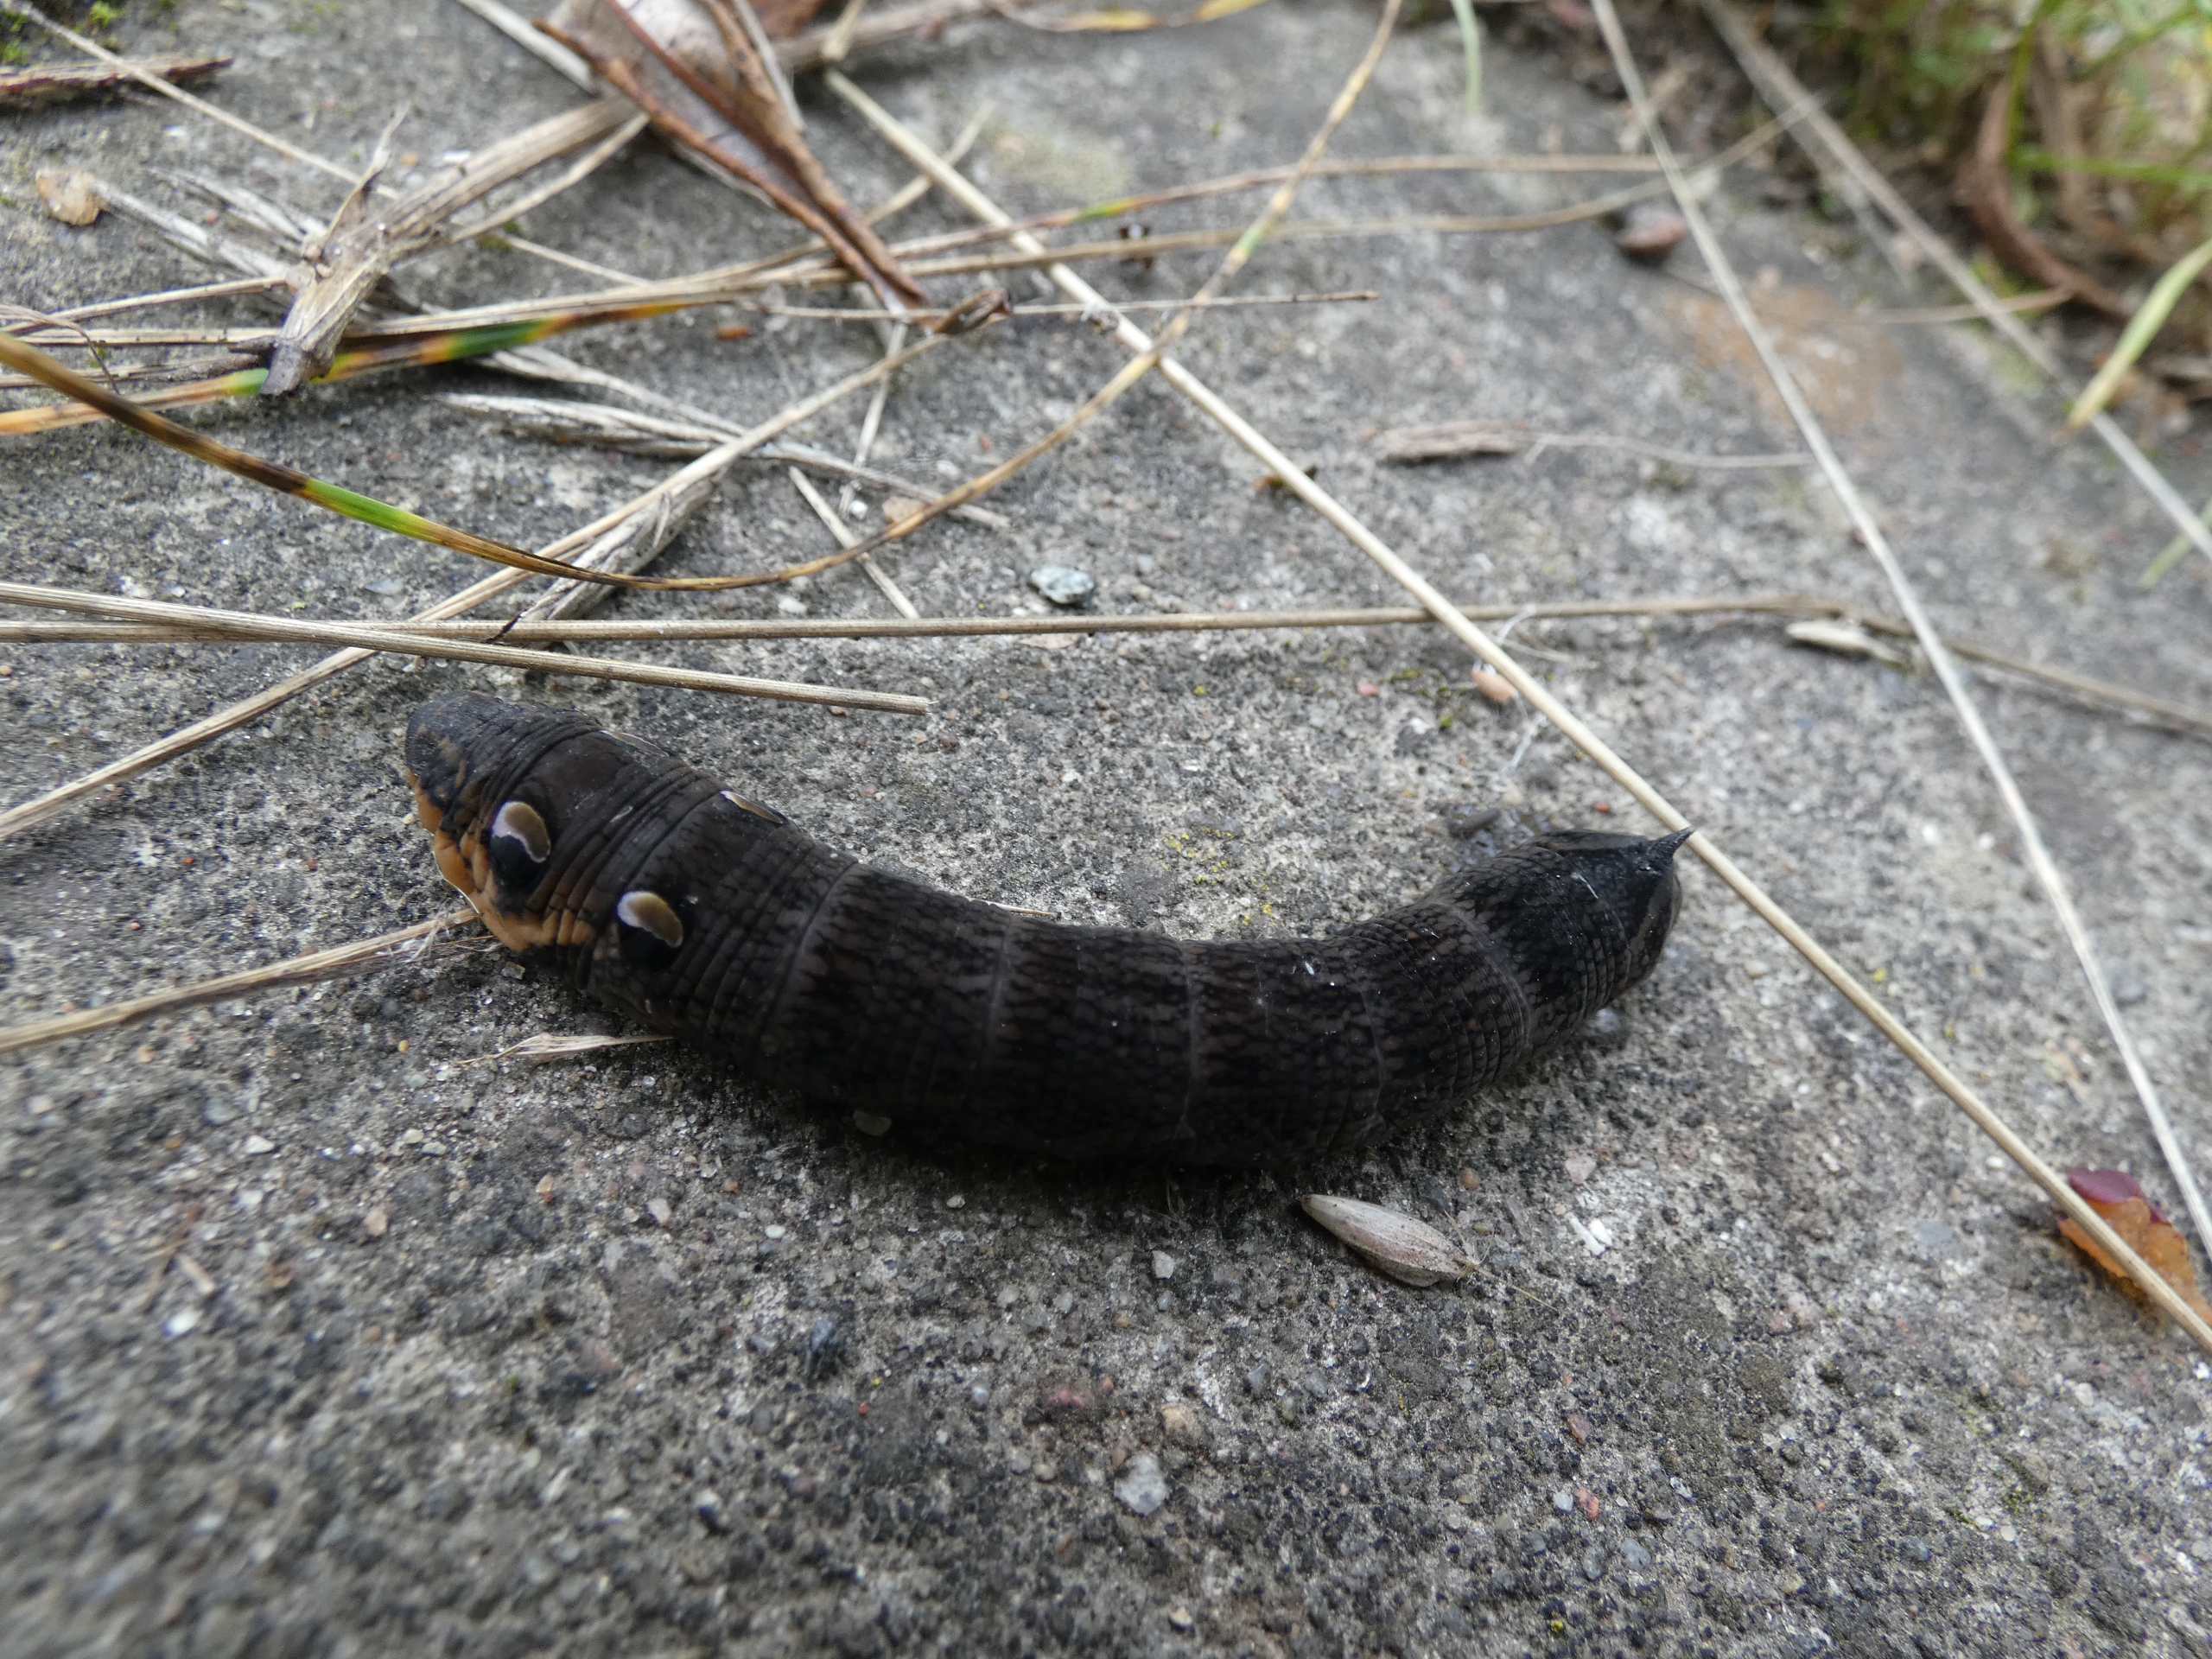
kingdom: Animalia
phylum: Arthropoda
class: Insecta
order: Lepidoptera
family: Sphingidae
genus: Deilephila
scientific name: Deilephila elpenor
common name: Dueurtsværmer
